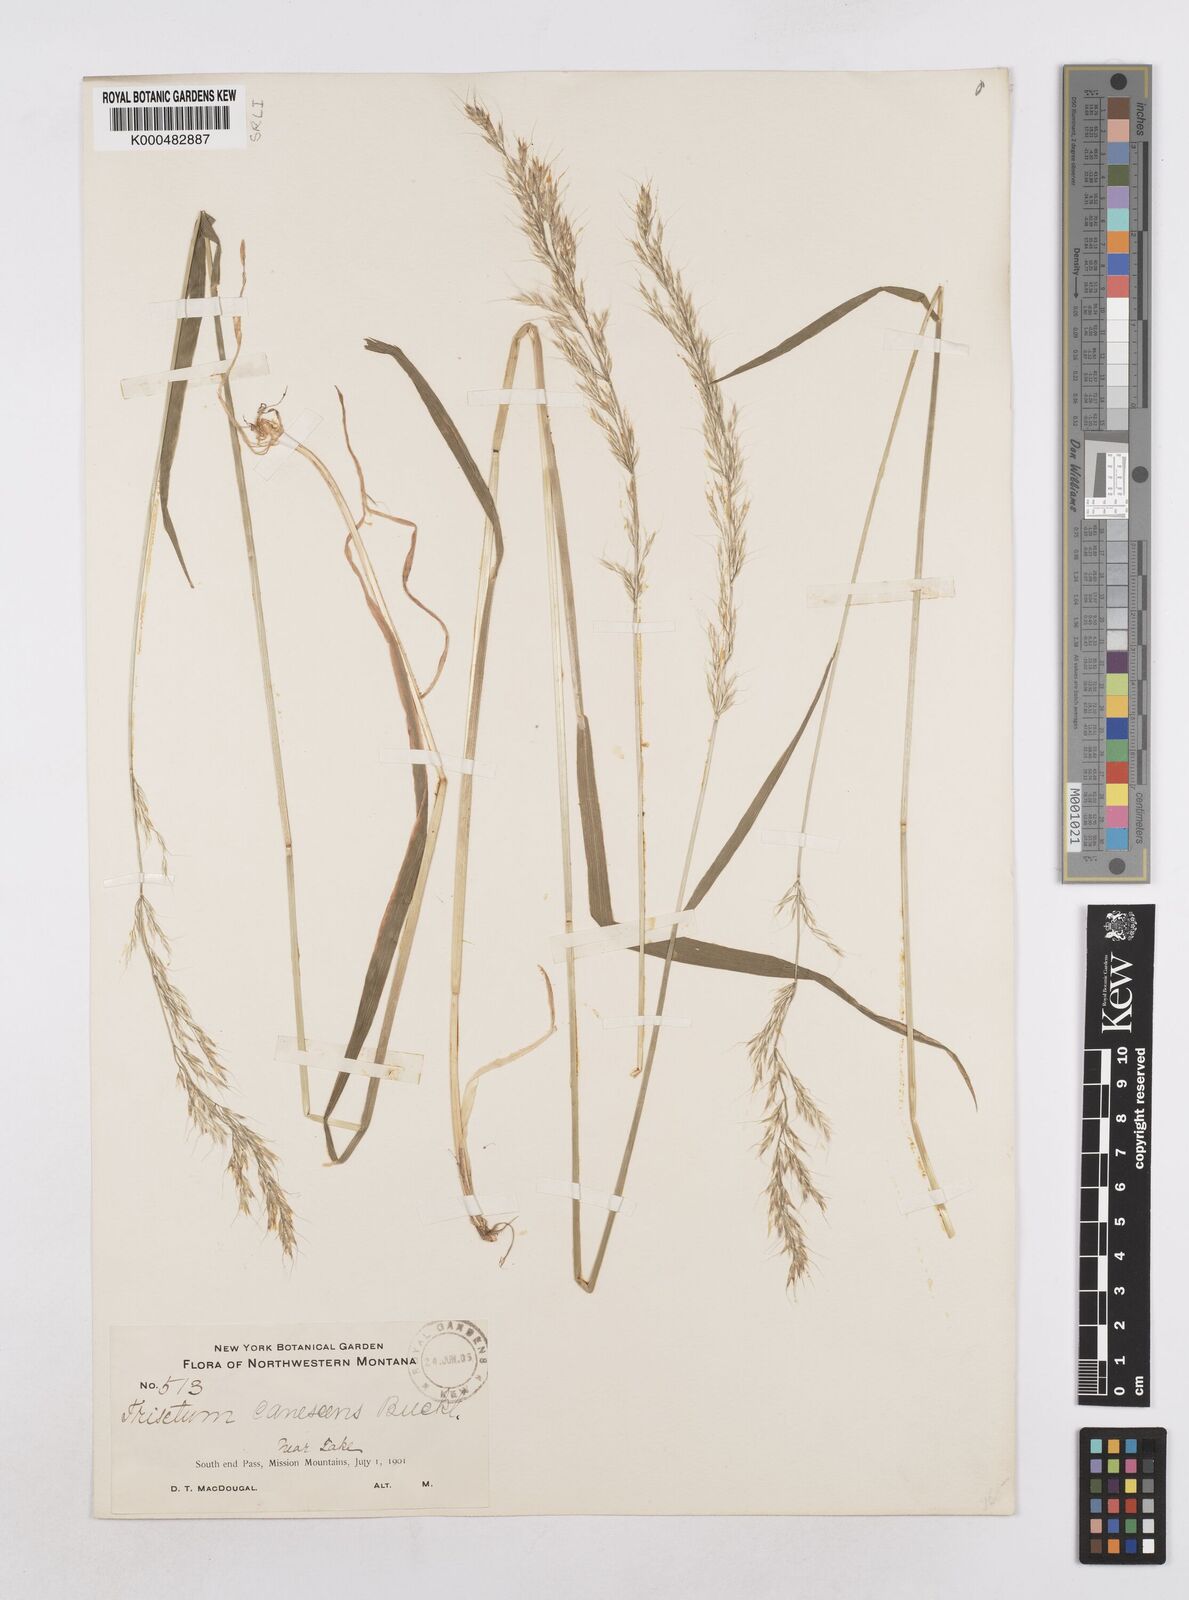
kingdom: Plantae
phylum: Tracheophyta
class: Liliopsida
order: Poales
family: Poaceae
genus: Graphephorum
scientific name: Graphephorum canescens
